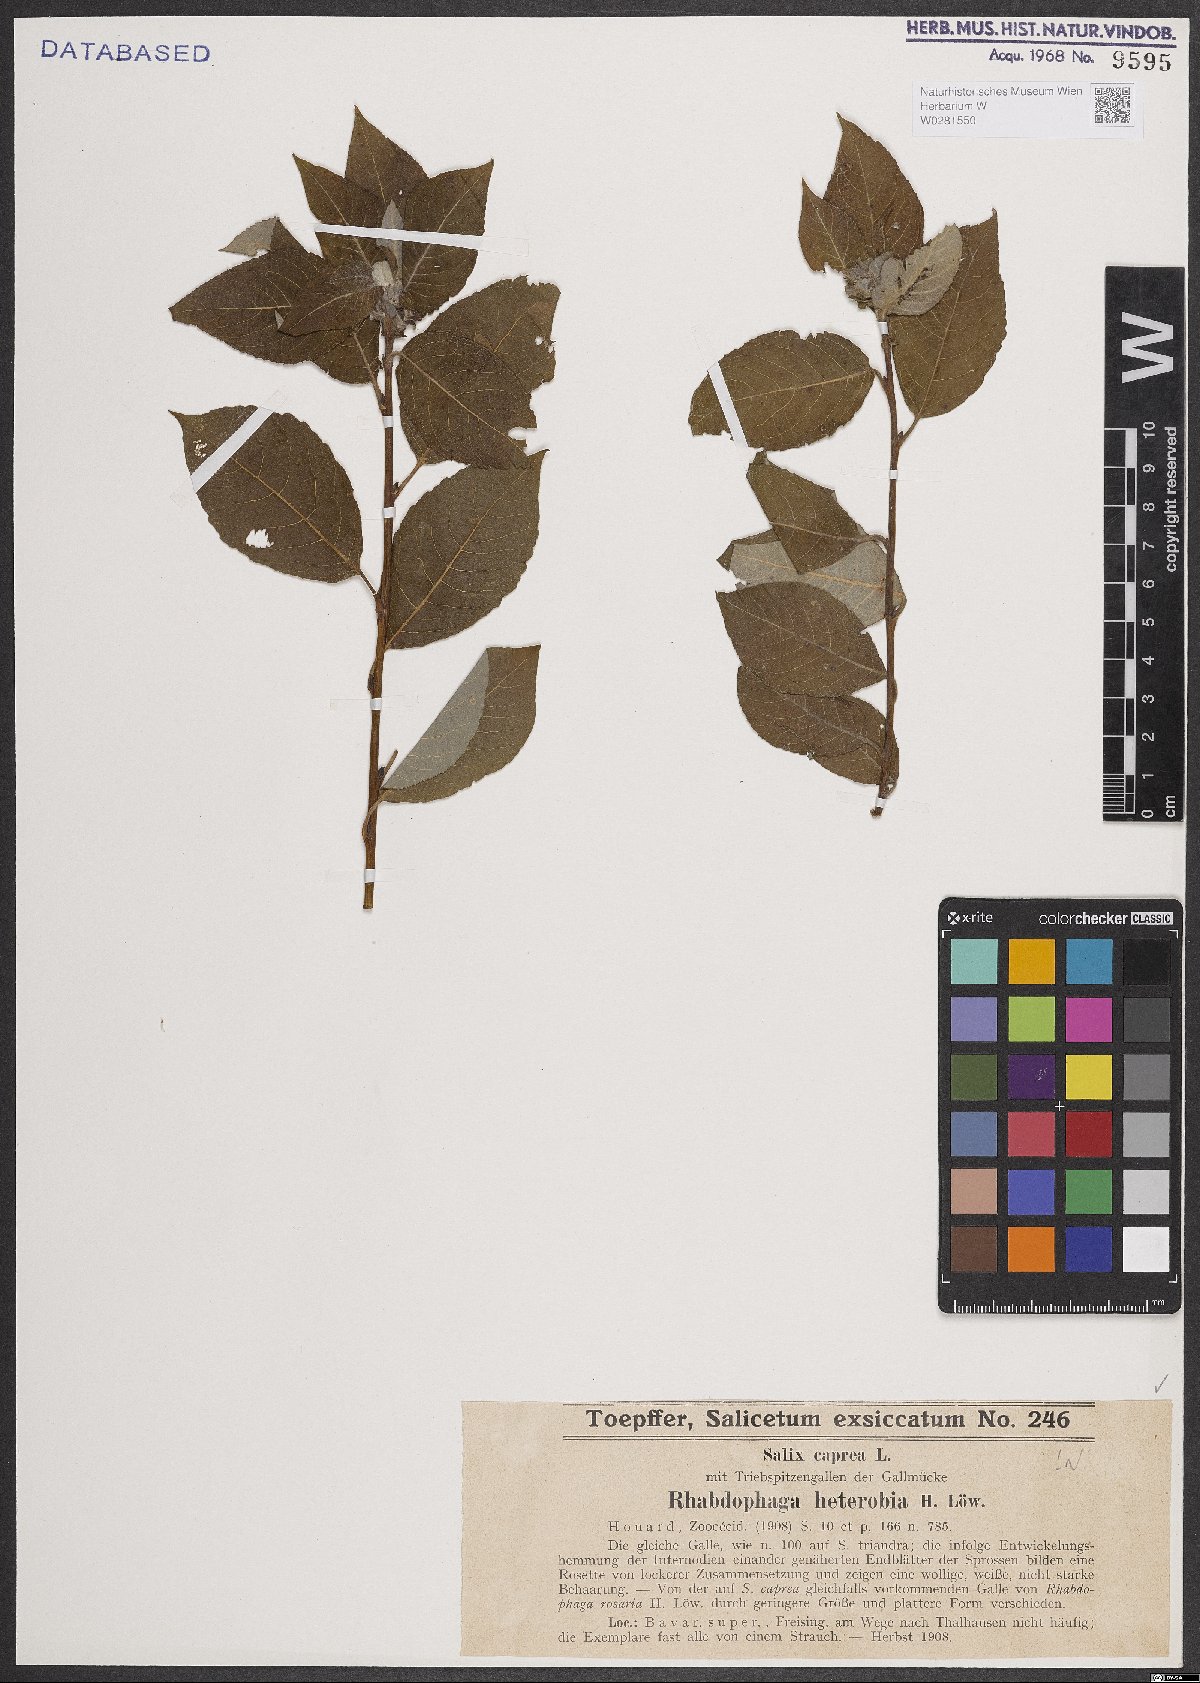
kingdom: Plantae
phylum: Tracheophyta
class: Magnoliopsida
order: Malpighiales
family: Salicaceae
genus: Salix
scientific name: Salix caprea
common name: Goat willow
